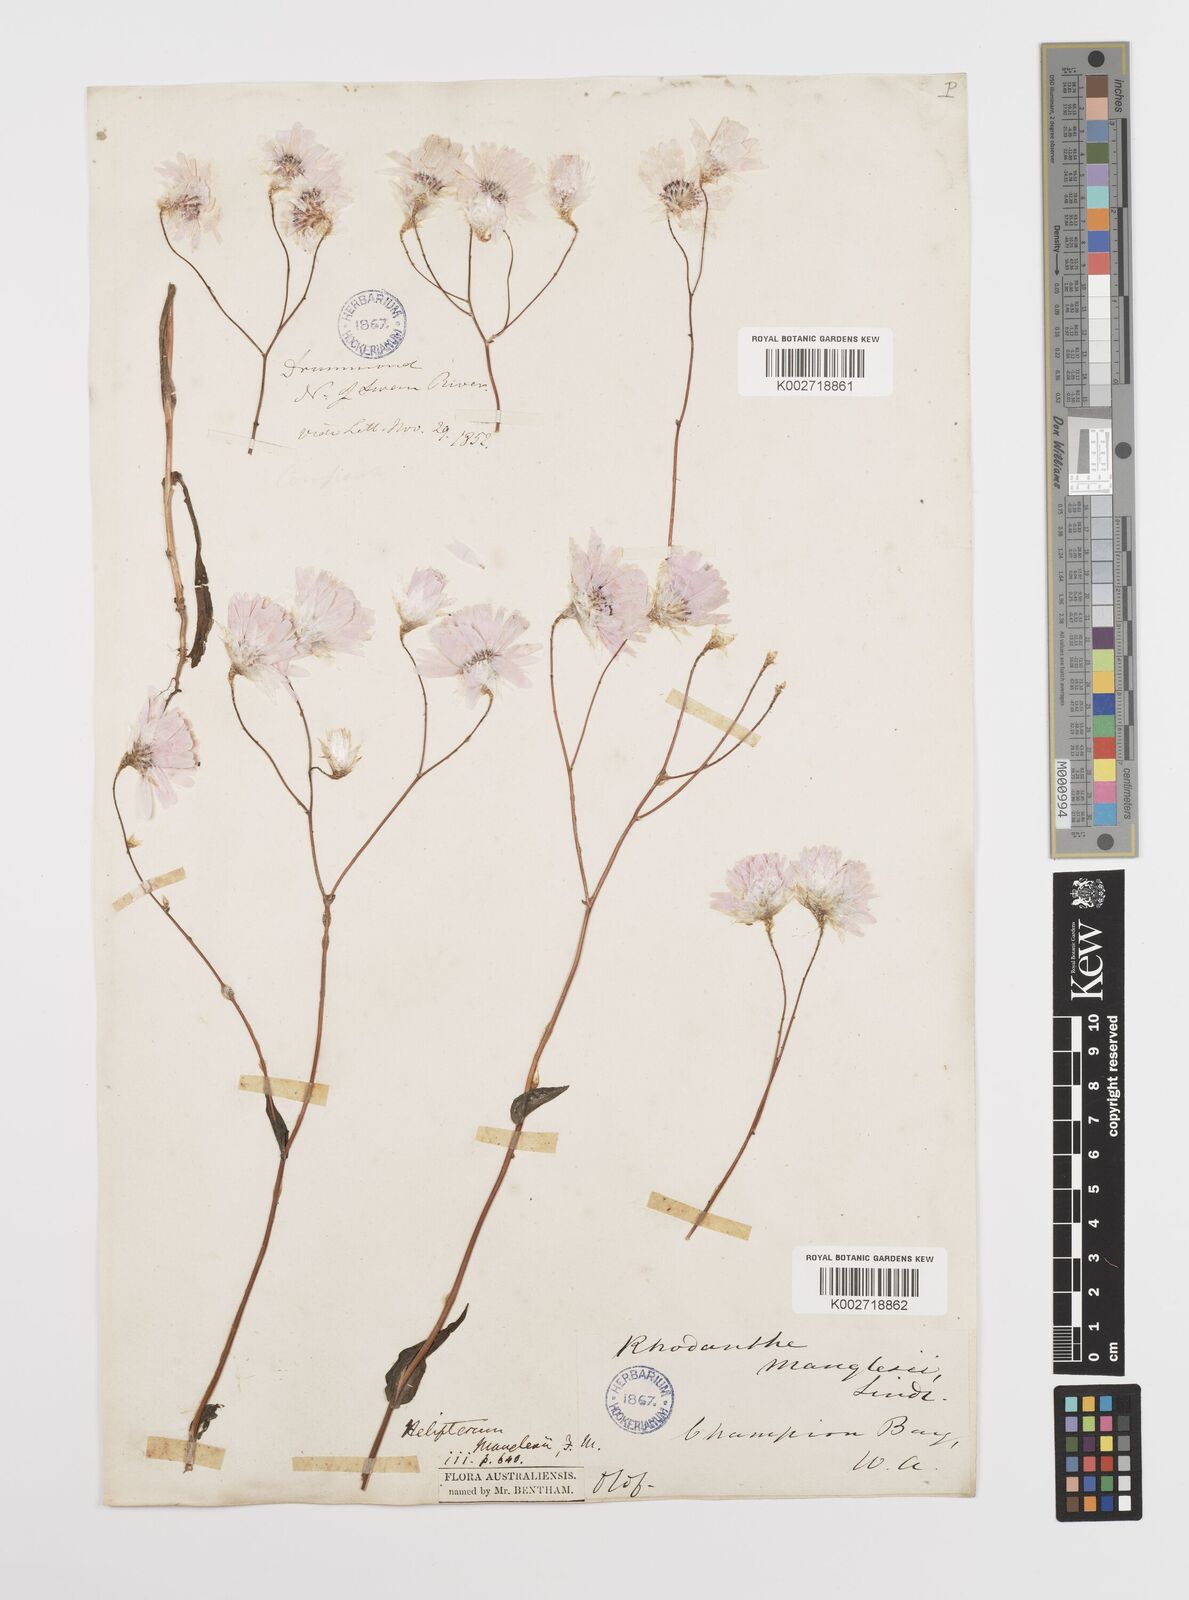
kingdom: Plantae
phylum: Tracheophyta
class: Magnoliopsida
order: Asterales
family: Asteraceae
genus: Rhodanthe
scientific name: Rhodanthe manglesii
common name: Pink sunray
